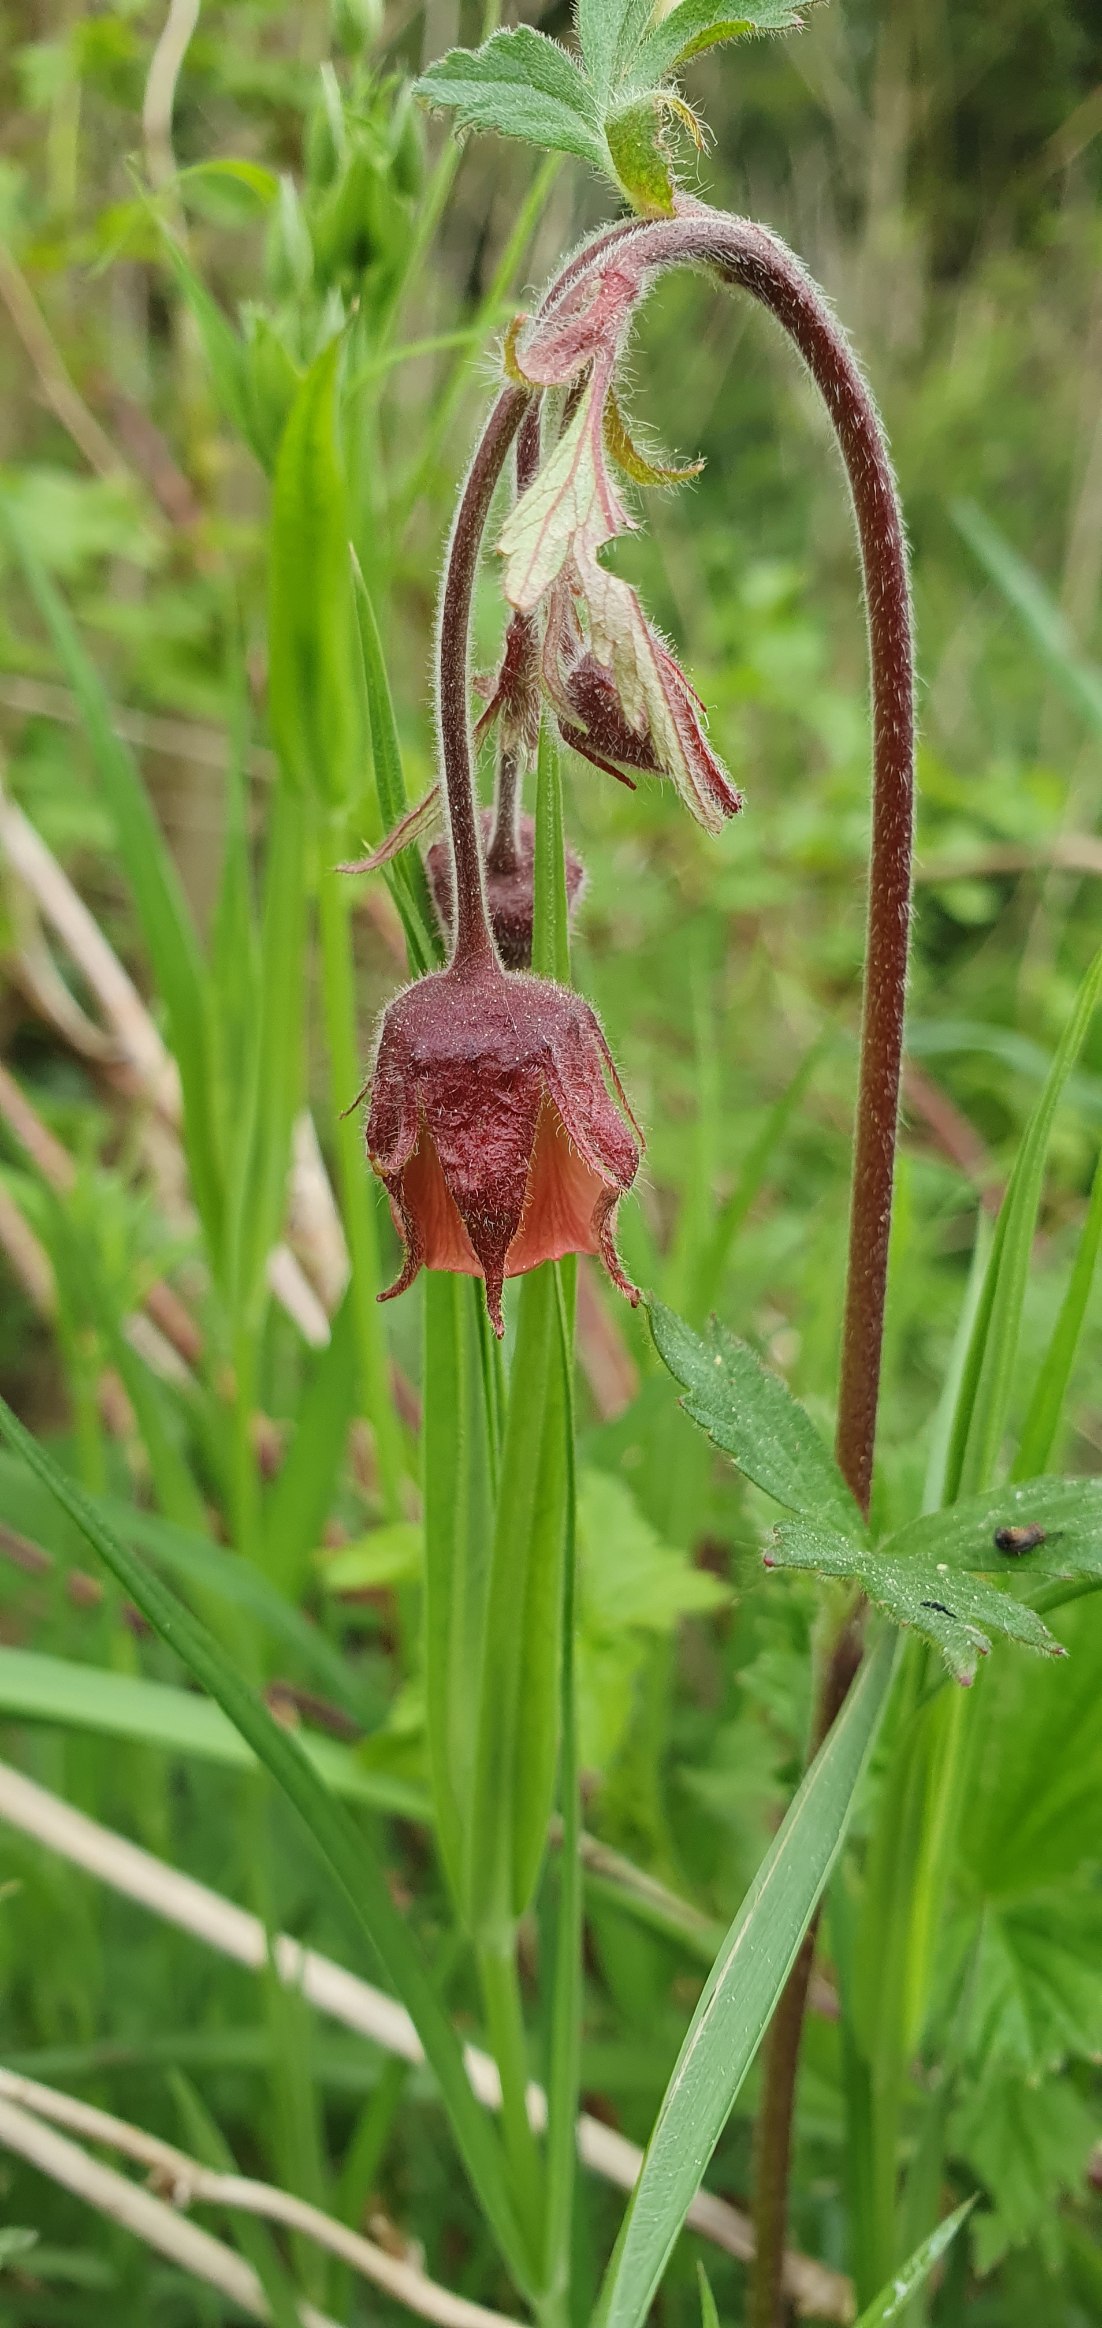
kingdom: Plantae
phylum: Tracheophyta
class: Magnoliopsida
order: Rosales
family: Rosaceae
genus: Geum
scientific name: Geum rivale
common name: Eng-nellikerod
